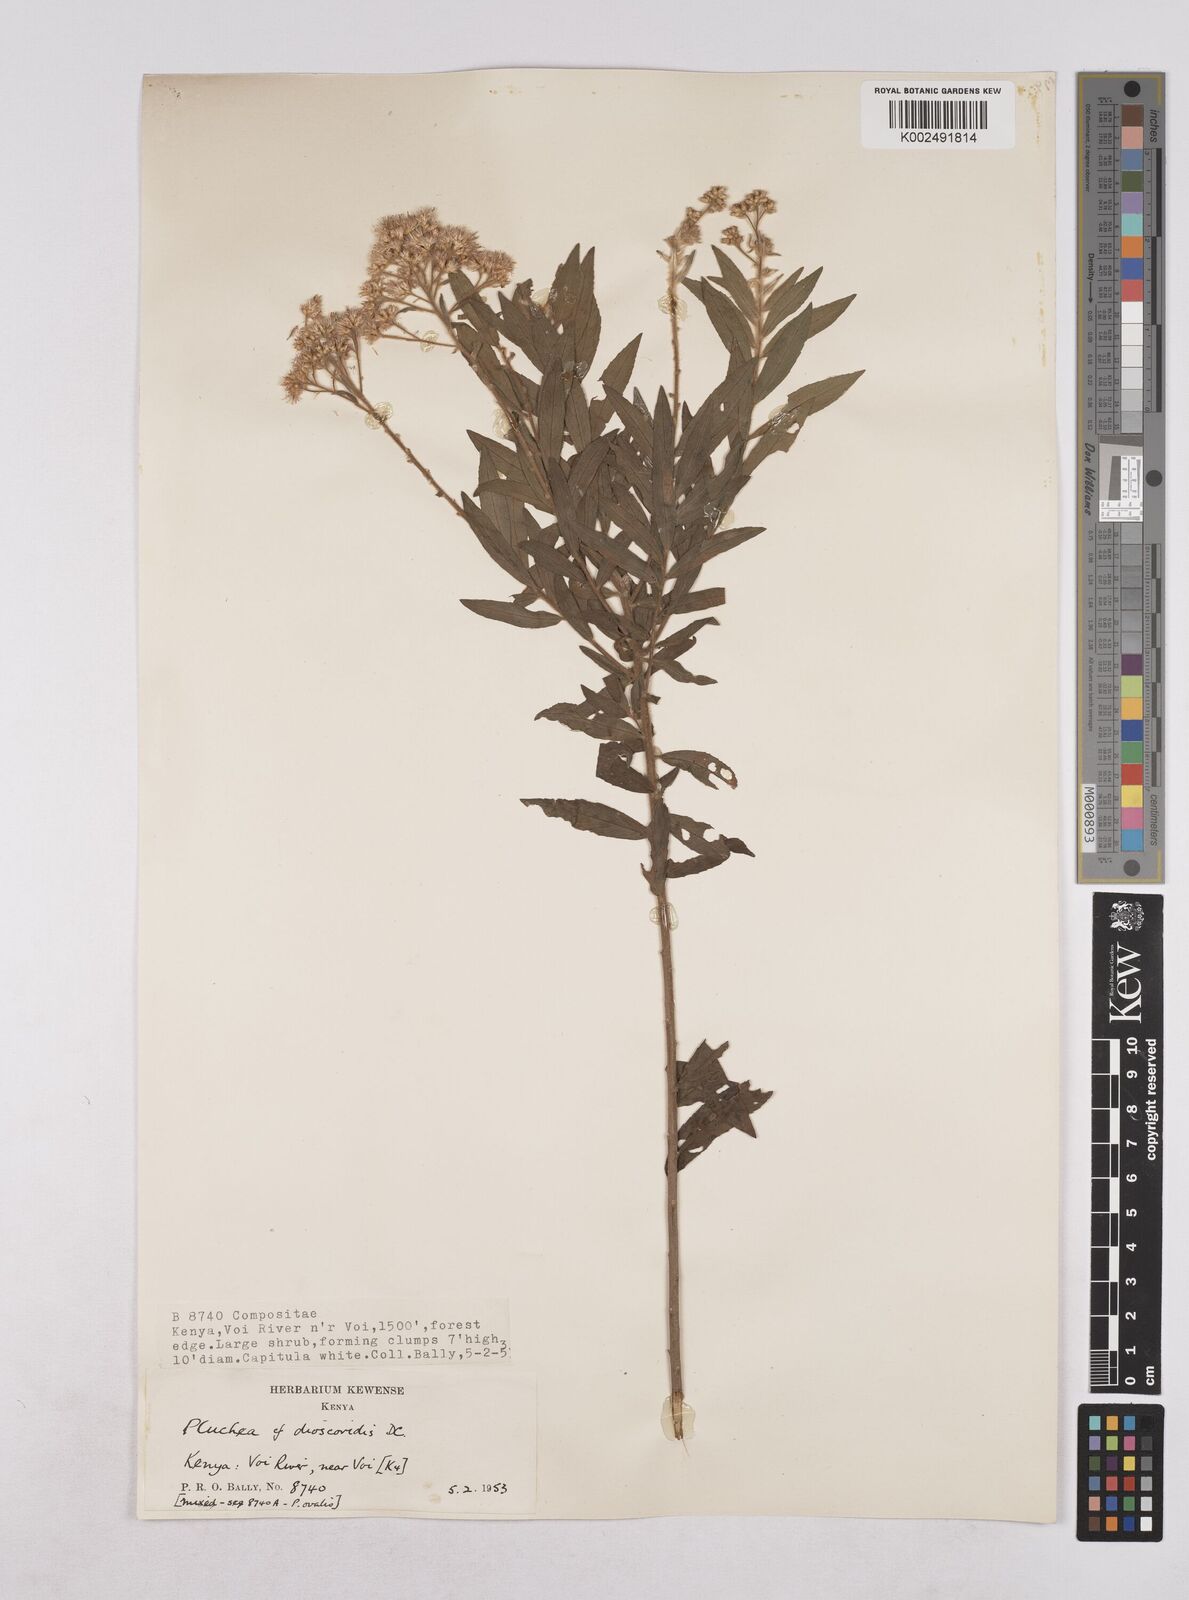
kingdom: Plantae
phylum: Tracheophyta
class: Magnoliopsida
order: Asterales
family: Asteraceae
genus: Pluchea
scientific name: Pluchea dioscoridis
